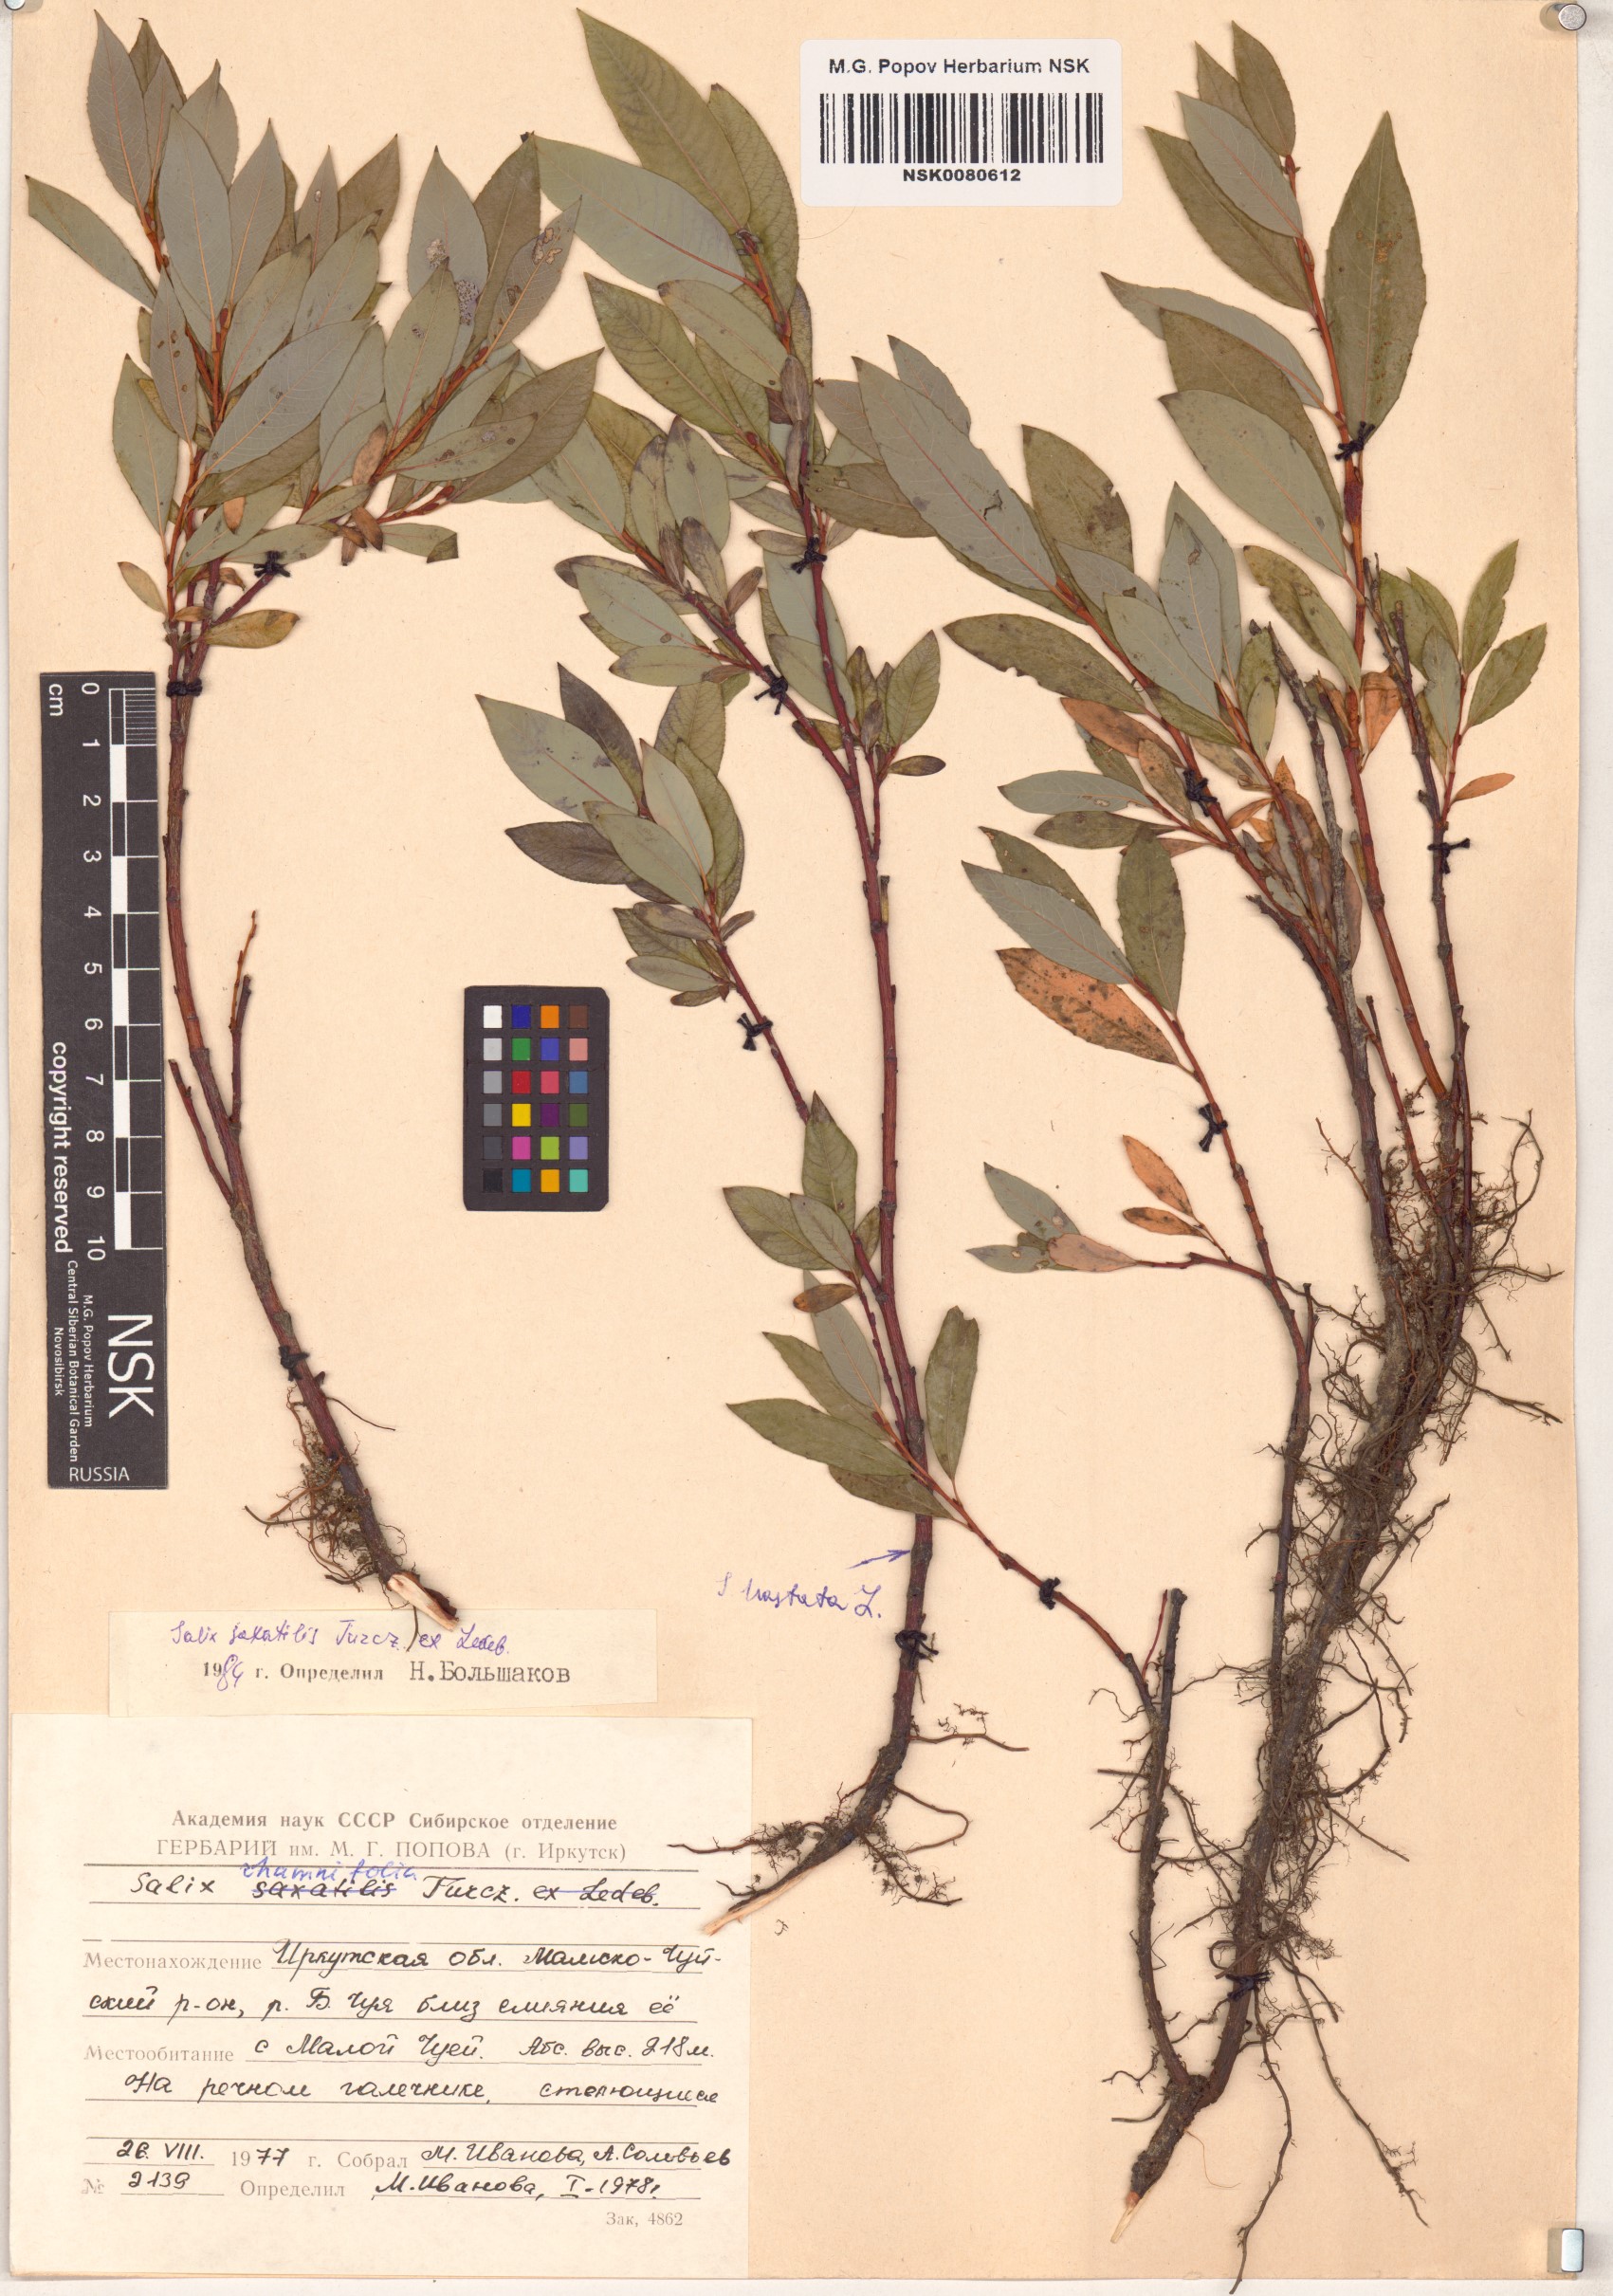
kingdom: Plantae
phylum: Tracheophyta
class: Magnoliopsida
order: Malpighiales
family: Salicaceae
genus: Salix
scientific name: Salix rhamnifolia
